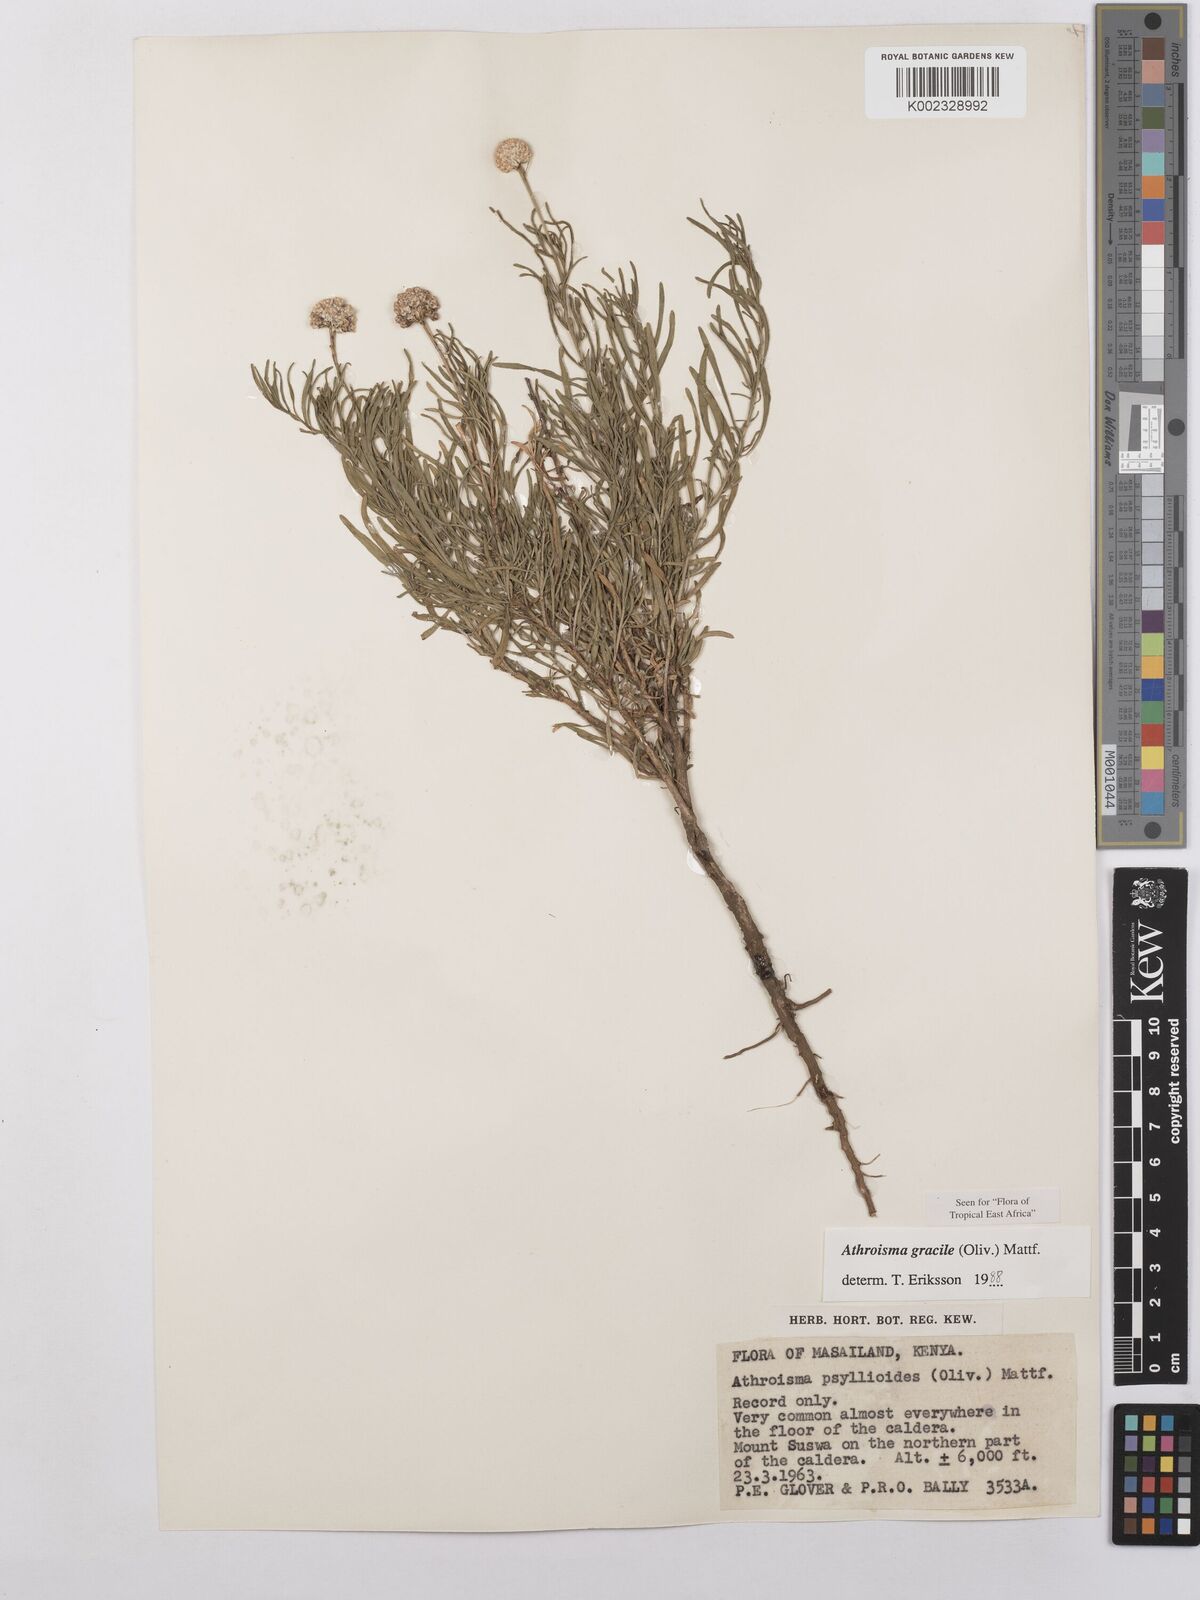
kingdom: Plantae
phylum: Tracheophyta
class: Magnoliopsida
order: Asterales
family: Asteraceae
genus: Athroisma
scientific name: Athroisma gracile
